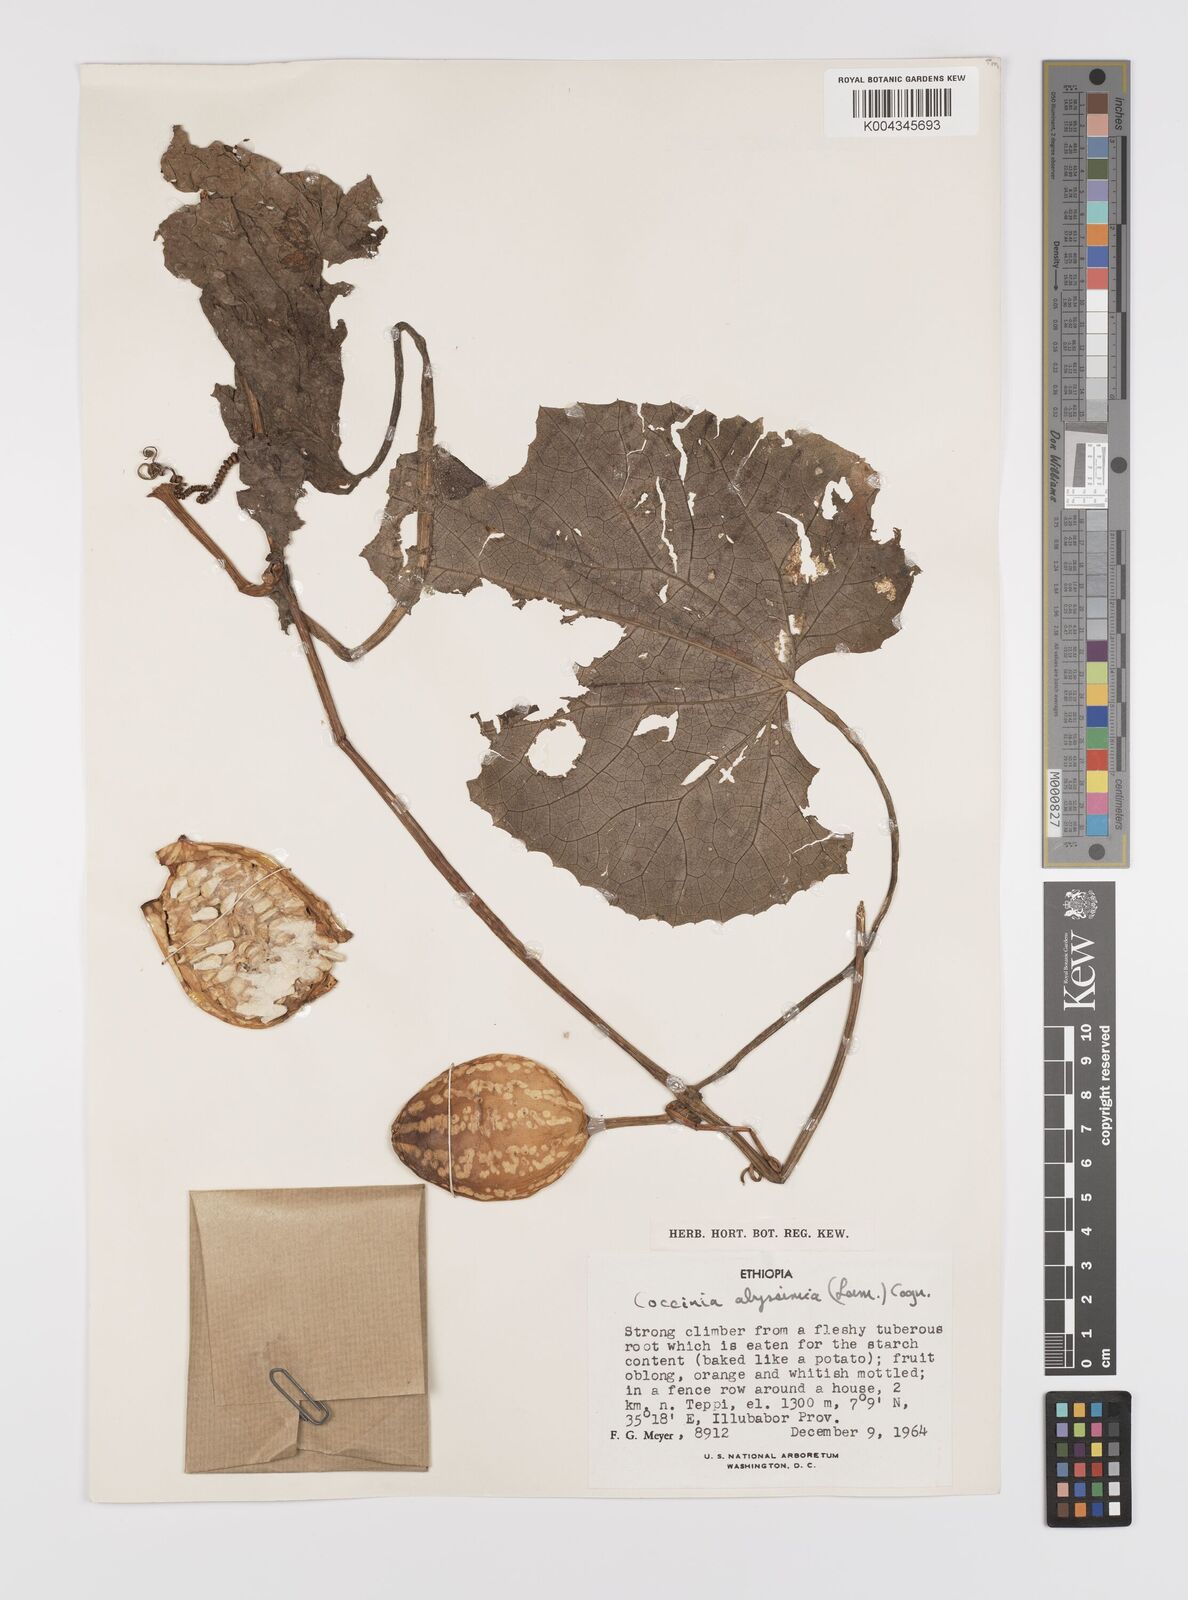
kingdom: Plantae
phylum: Tracheophyta
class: Magnoliopsida
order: Cucurbitales
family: Cucurbitaceae
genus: Coccinia
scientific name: Coccinia abyssinica
